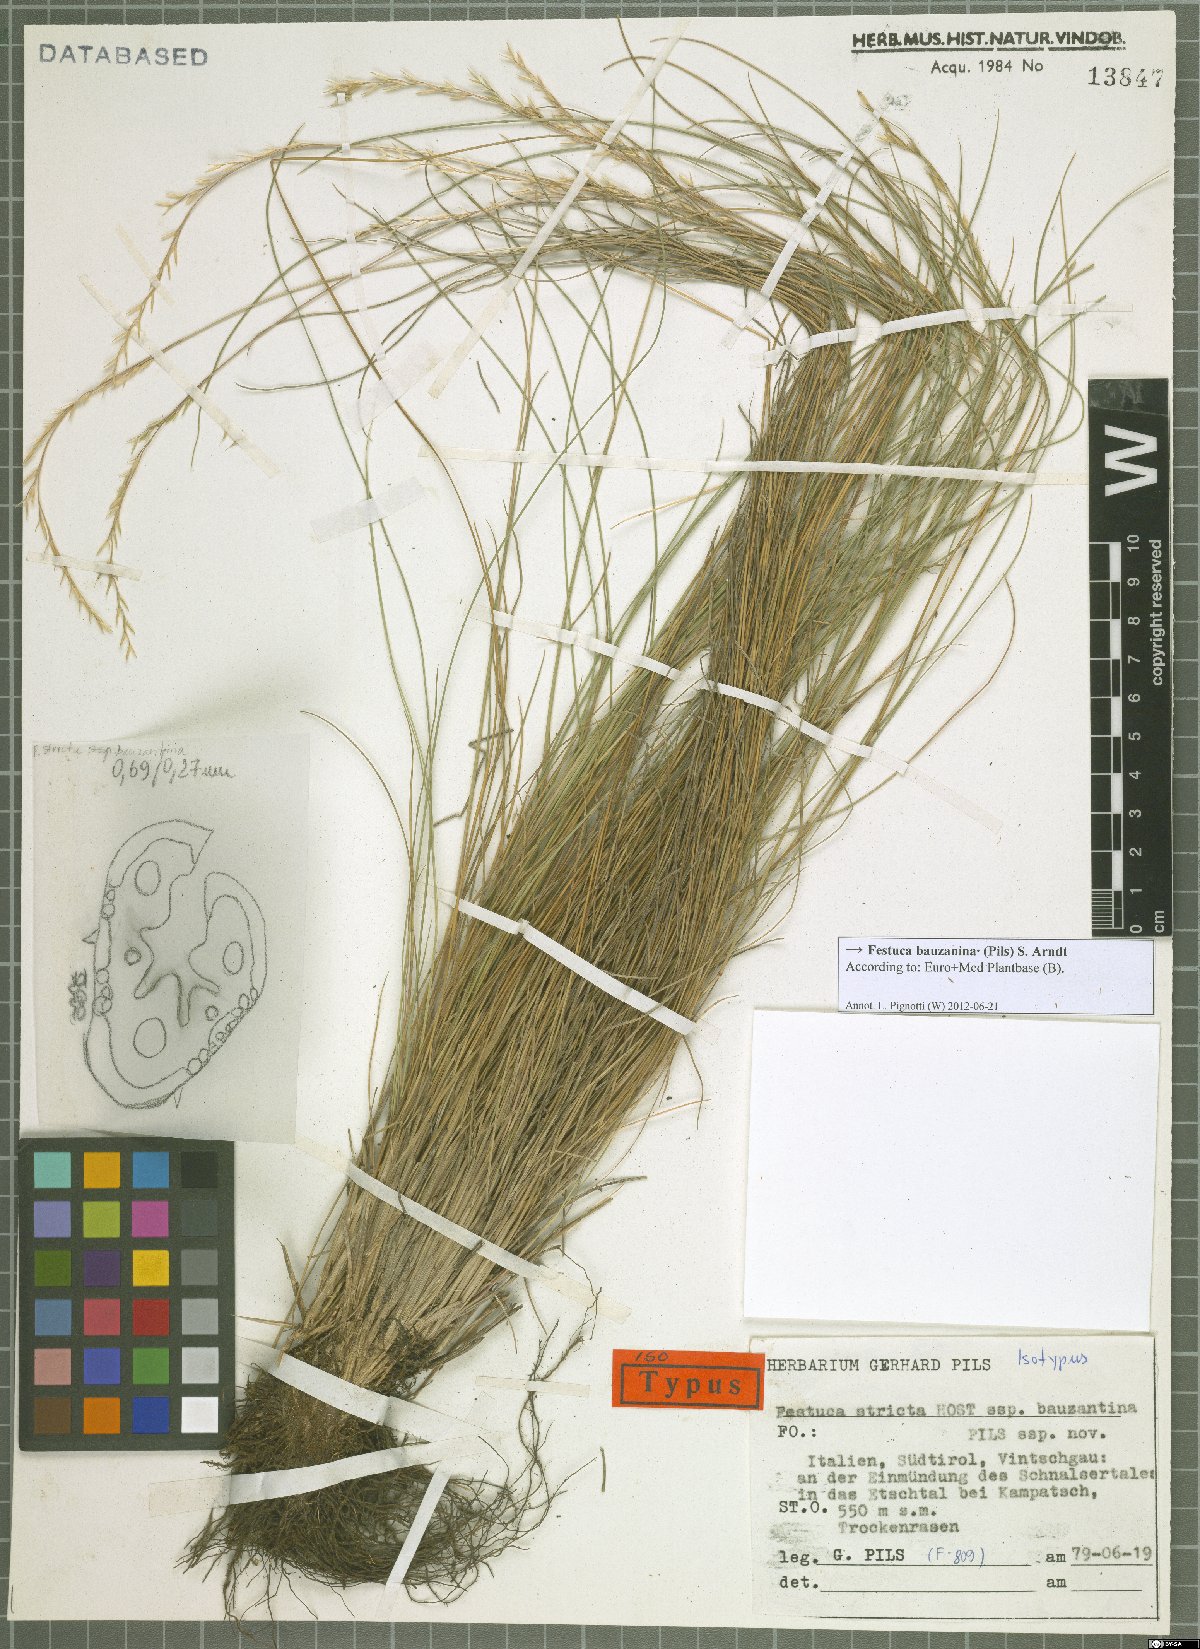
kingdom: Plantae
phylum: Tracheophyta
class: Liliopsida
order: Poales
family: Poaceae
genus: Festuca
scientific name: Festuca bauzanina
